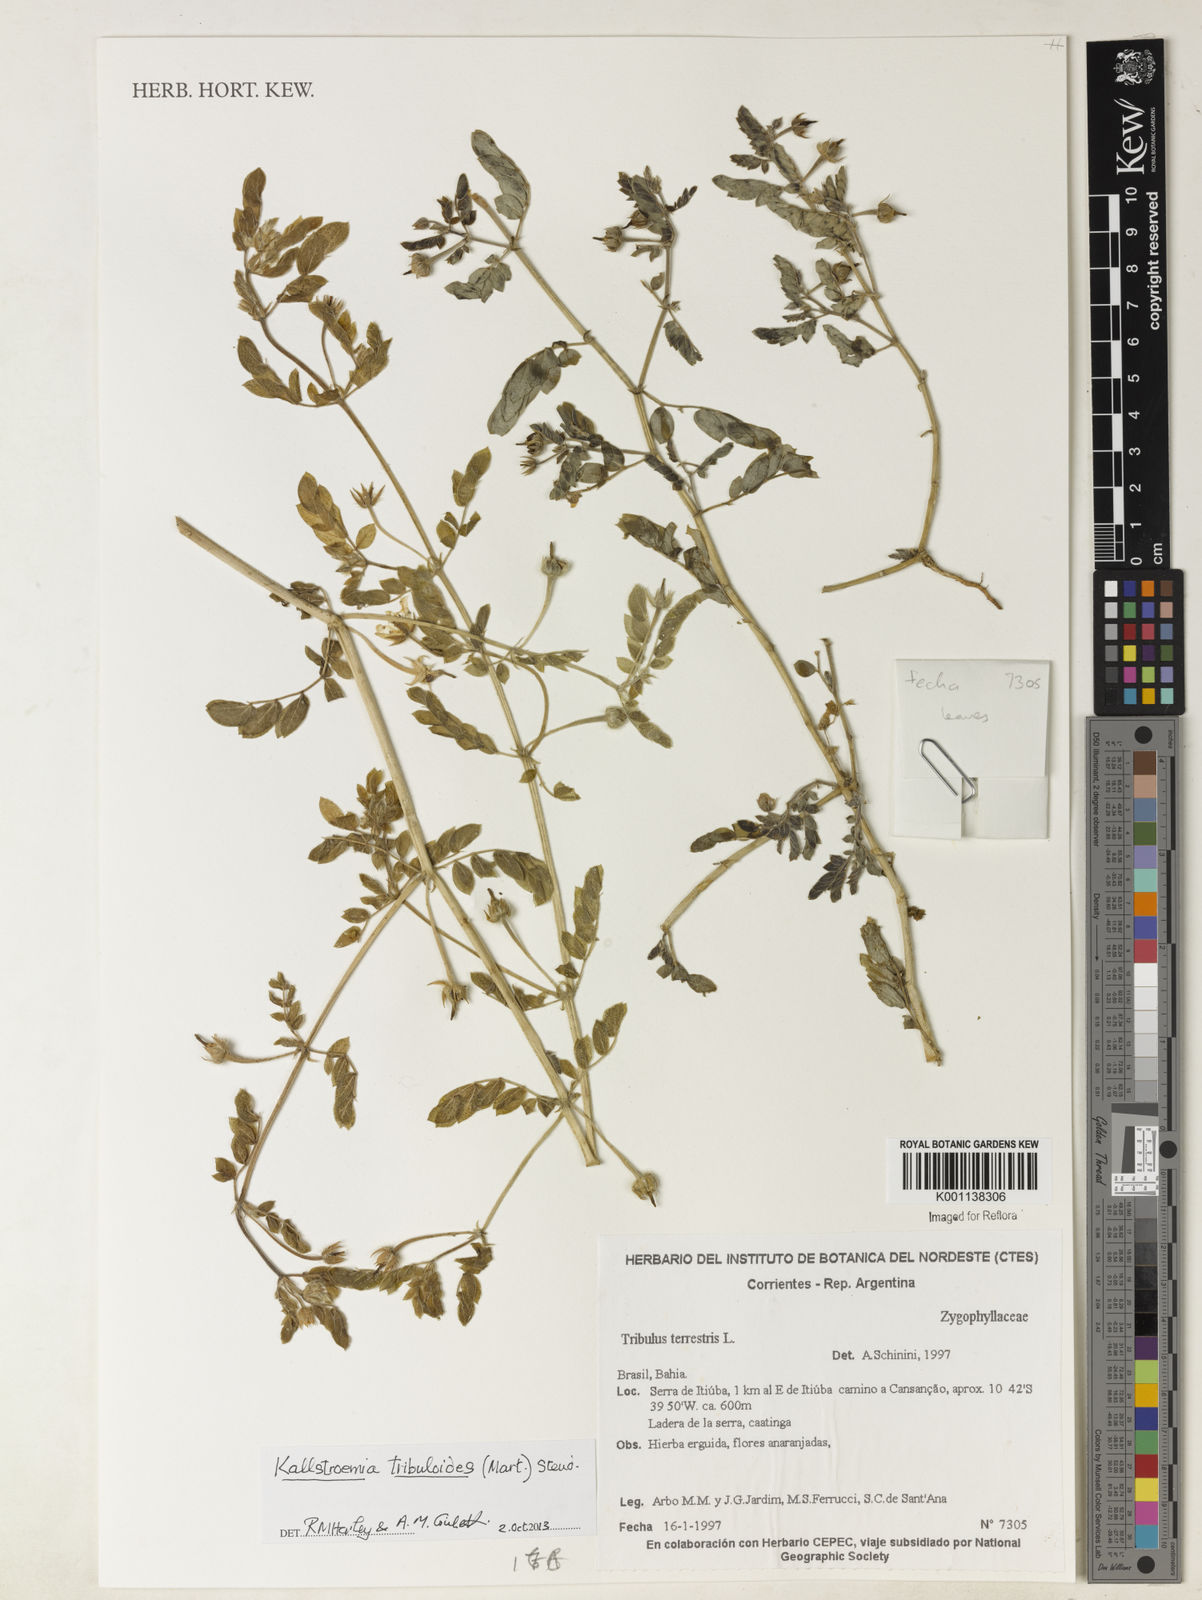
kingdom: Plantae
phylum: Tracheophyta
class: Magnoliopsida
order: Zygophyllales
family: Zygophyllaceae
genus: Kallstroemia
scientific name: Kallstroemia maxima
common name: Big caltropa
